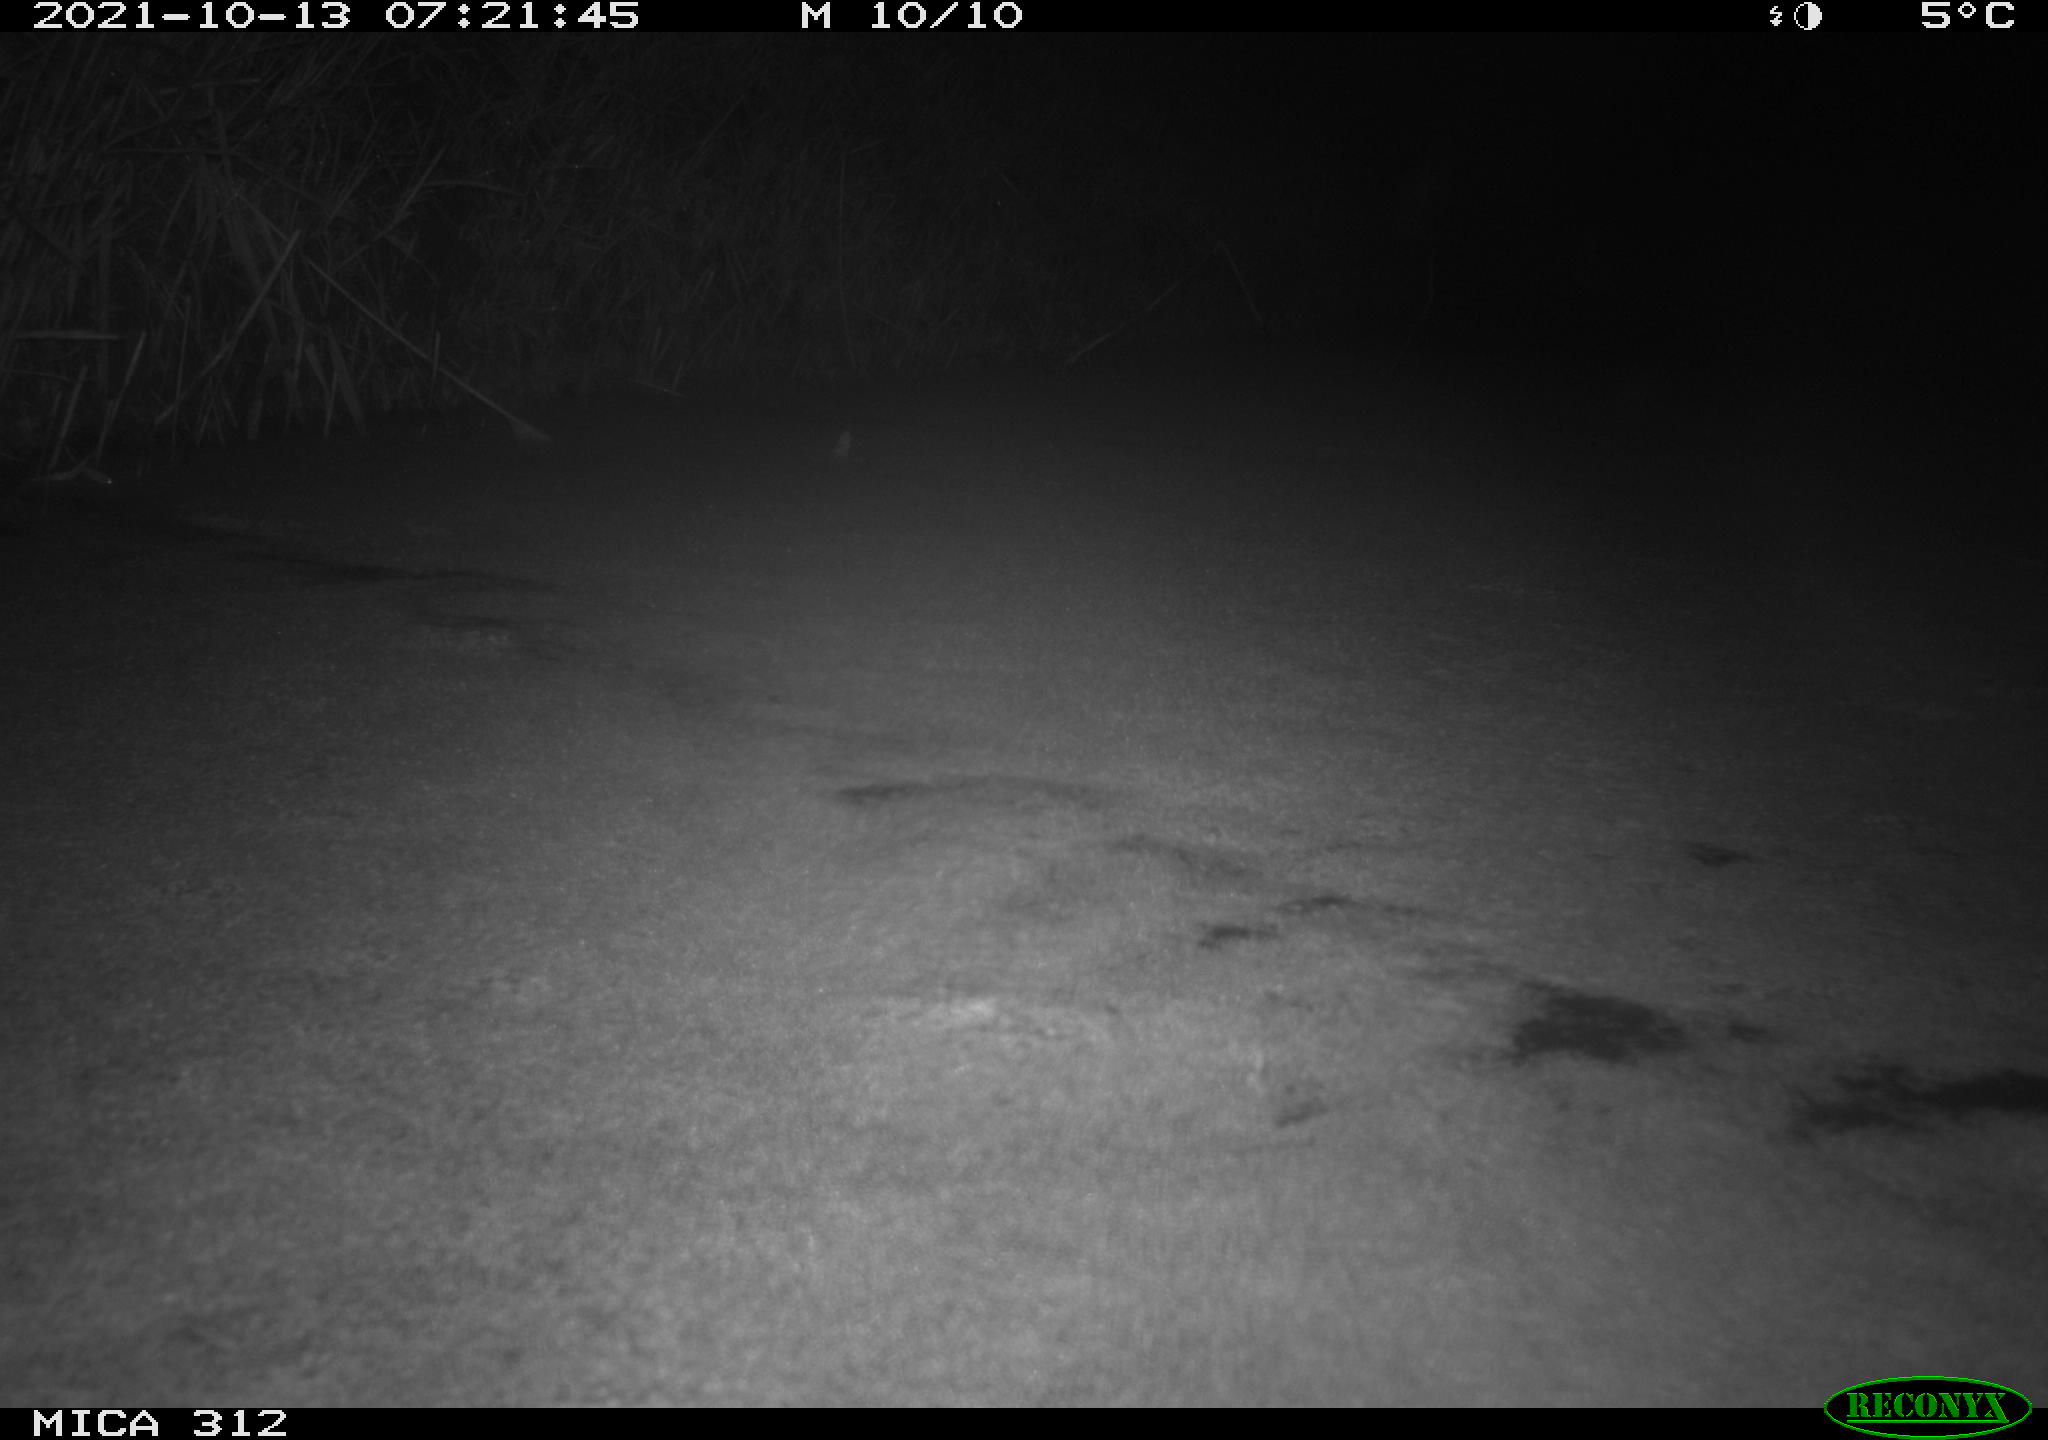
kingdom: Animalia
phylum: Chordata
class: Mammalia
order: Rodentia
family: Muridae
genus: Rattus
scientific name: Rattus norvegicus
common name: Brown rat
